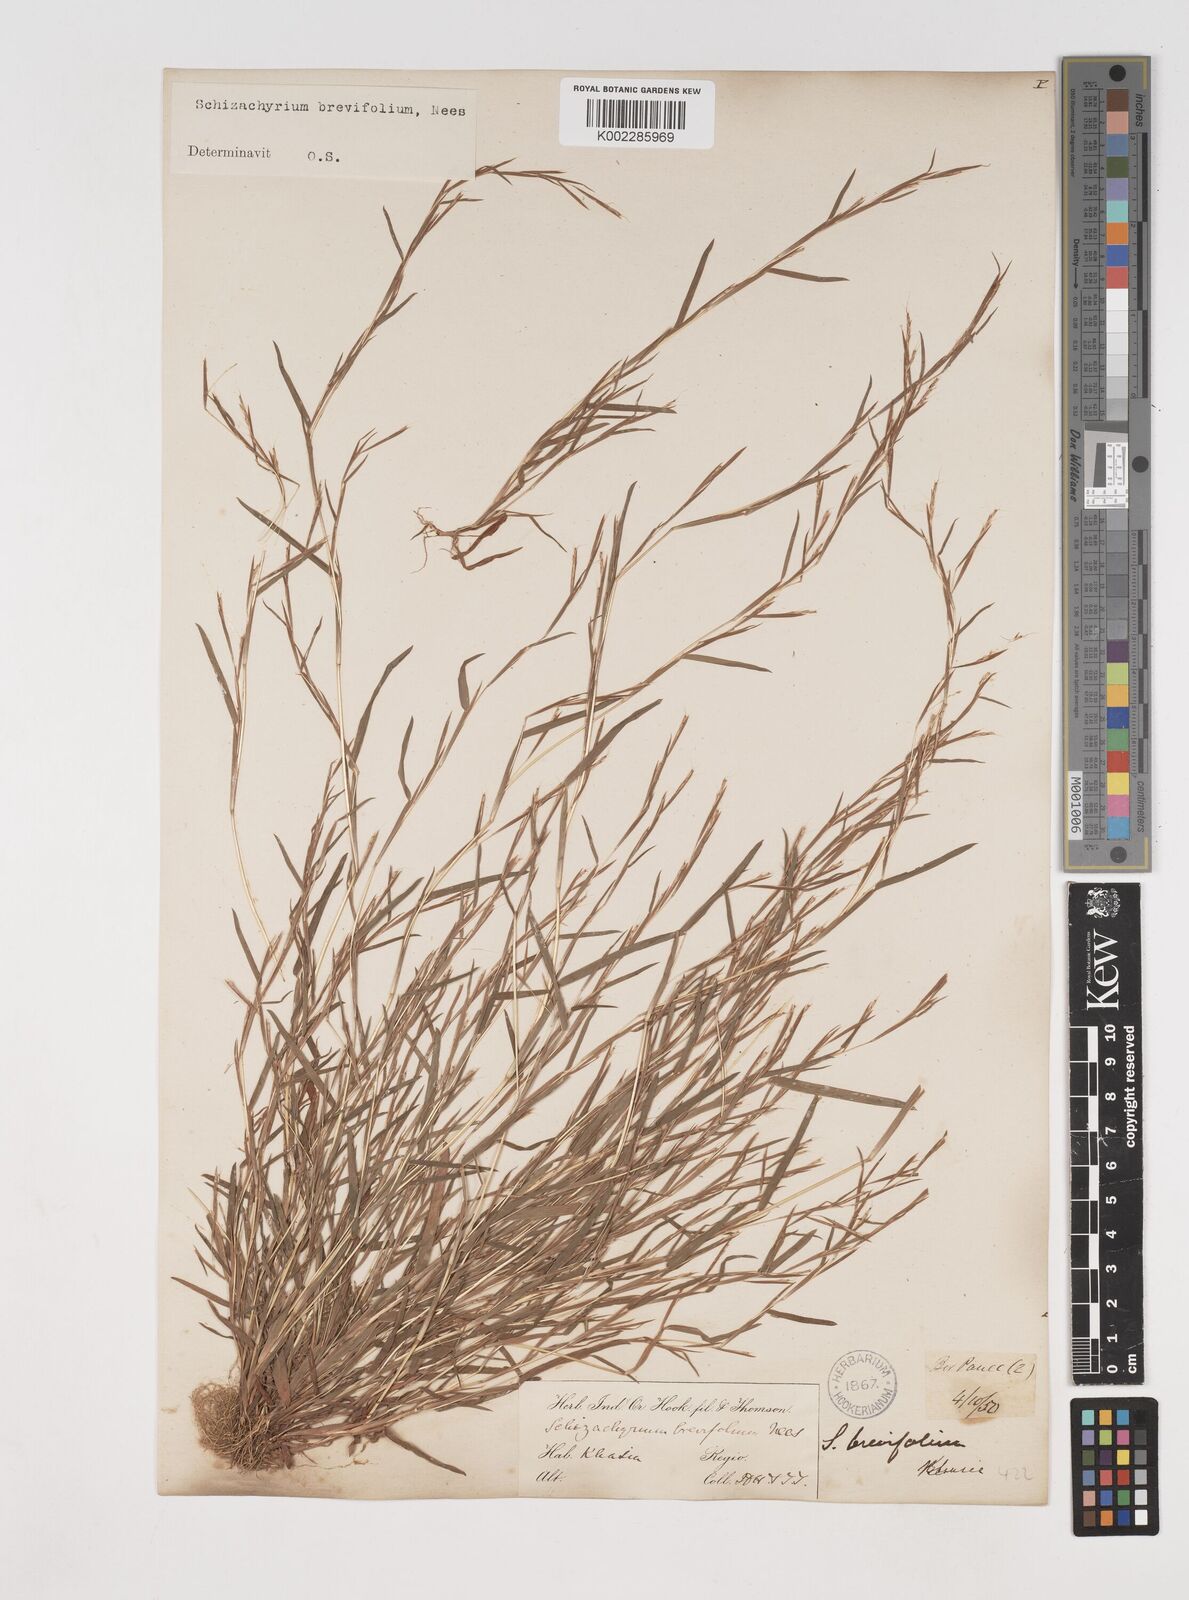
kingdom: Plantae
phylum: Tracheophyta
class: Liliopsida
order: Poales
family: Poaceae
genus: Schizachyrium
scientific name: Schizachyrium brevifolium
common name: Serillo dulce
